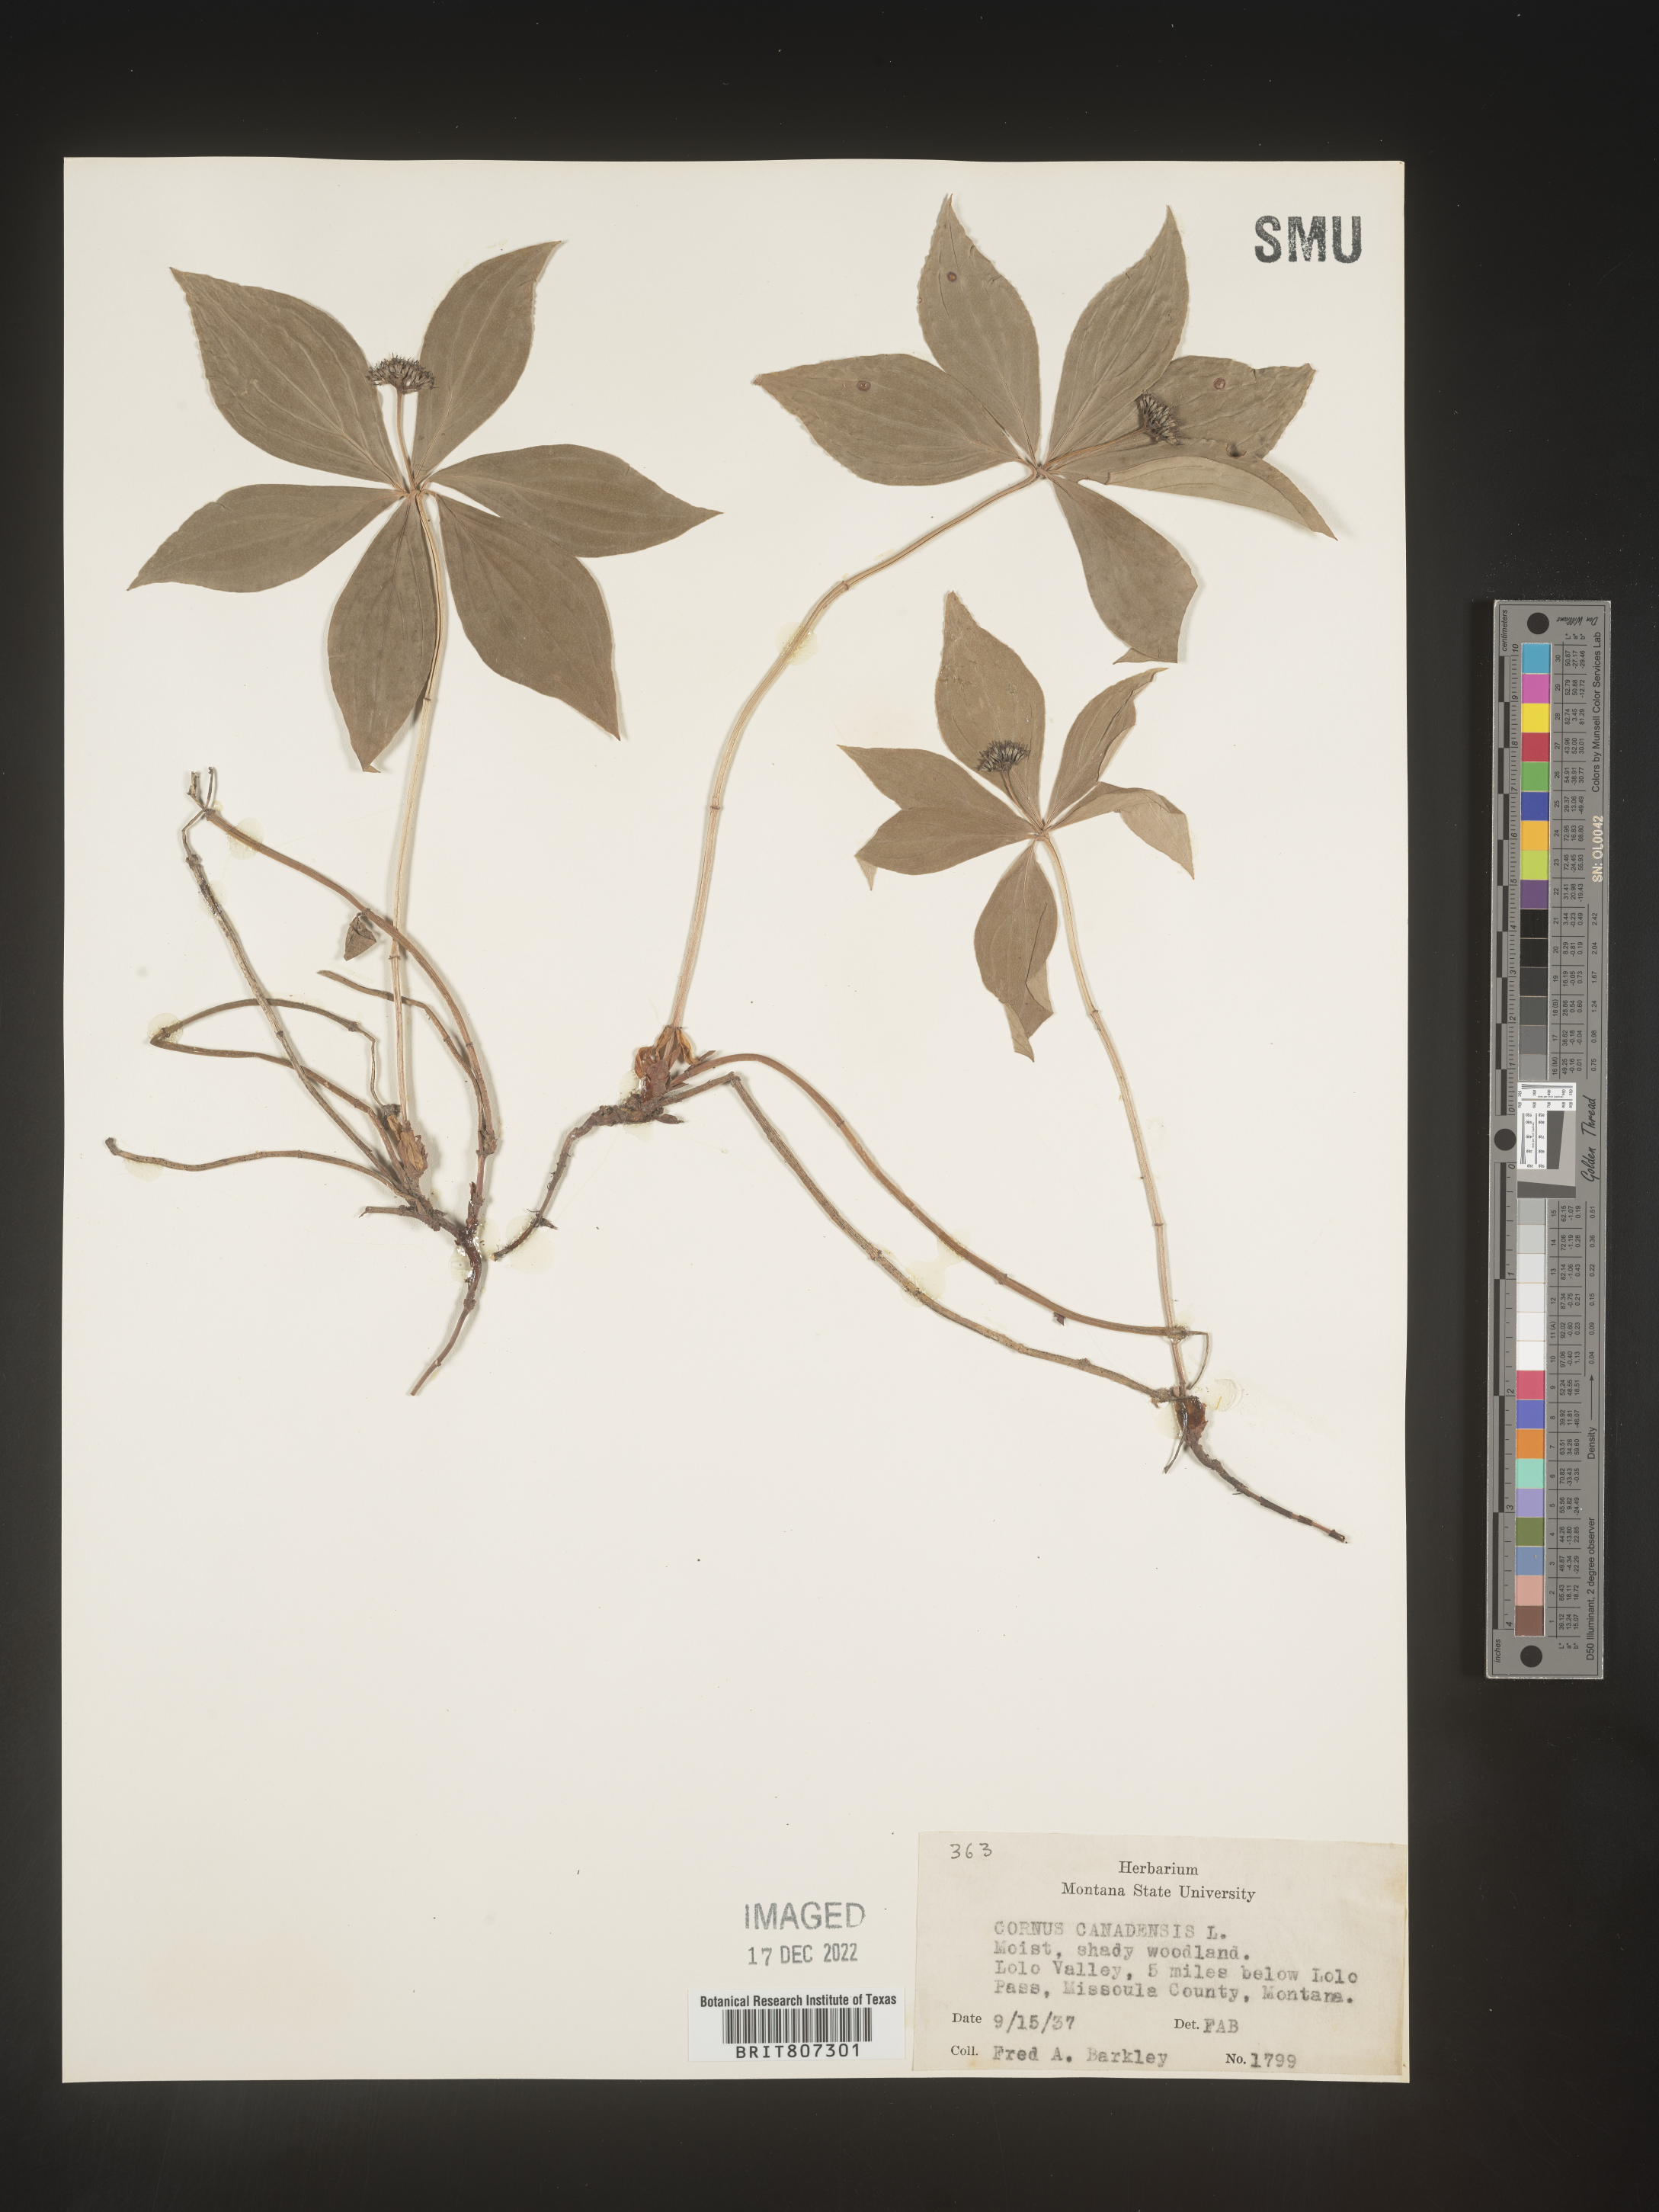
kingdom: Plantae
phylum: Tracheophyta
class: Magnoliopsida
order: Cornales
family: Cornaceae
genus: Cornus
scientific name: Cornus canadensis
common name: Creeping dogwood
